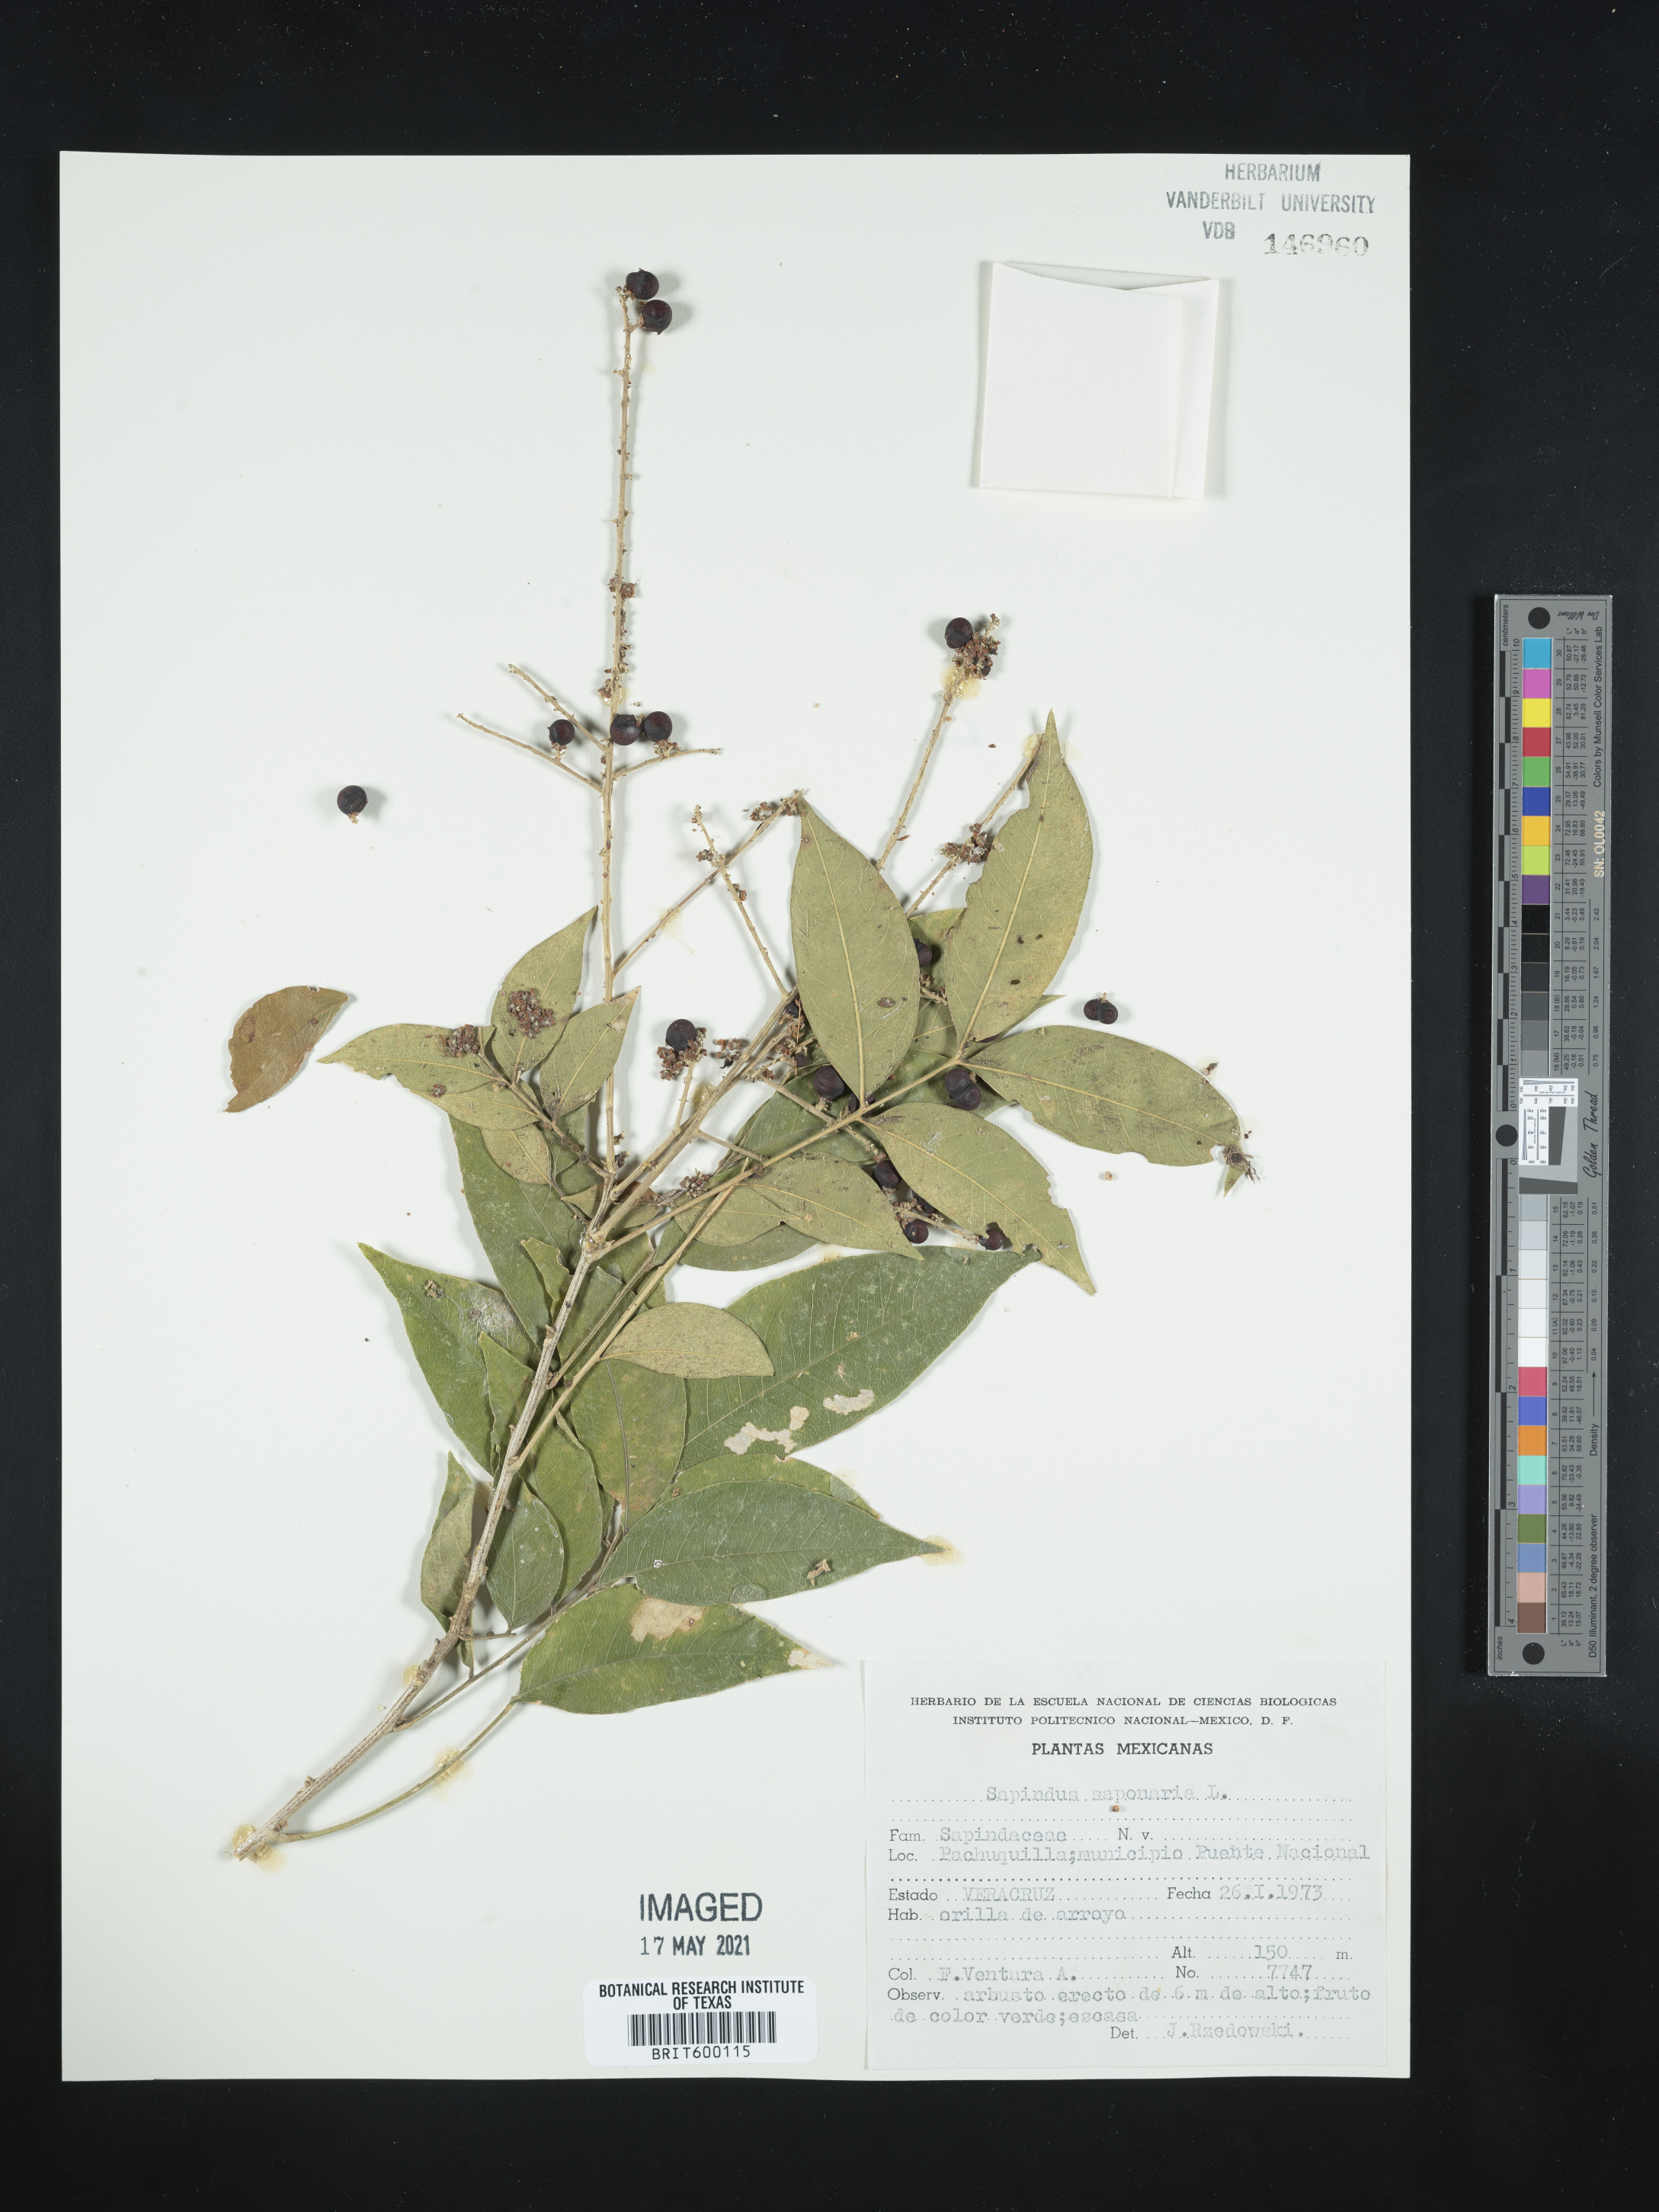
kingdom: Plantae
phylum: Tracheophyta
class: Magnoliopsida
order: Sapindales
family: Sapindaceae
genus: Sapindus
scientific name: Sapindus saponaria
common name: Wingleaf soapberry
